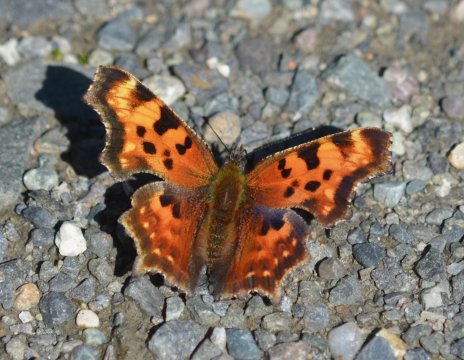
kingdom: Animalia
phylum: Arthropoda
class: Insecta
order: Lepidoptera
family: Nymphalidae
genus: Polygonia
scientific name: Polygonia faunus
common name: Green Comma
